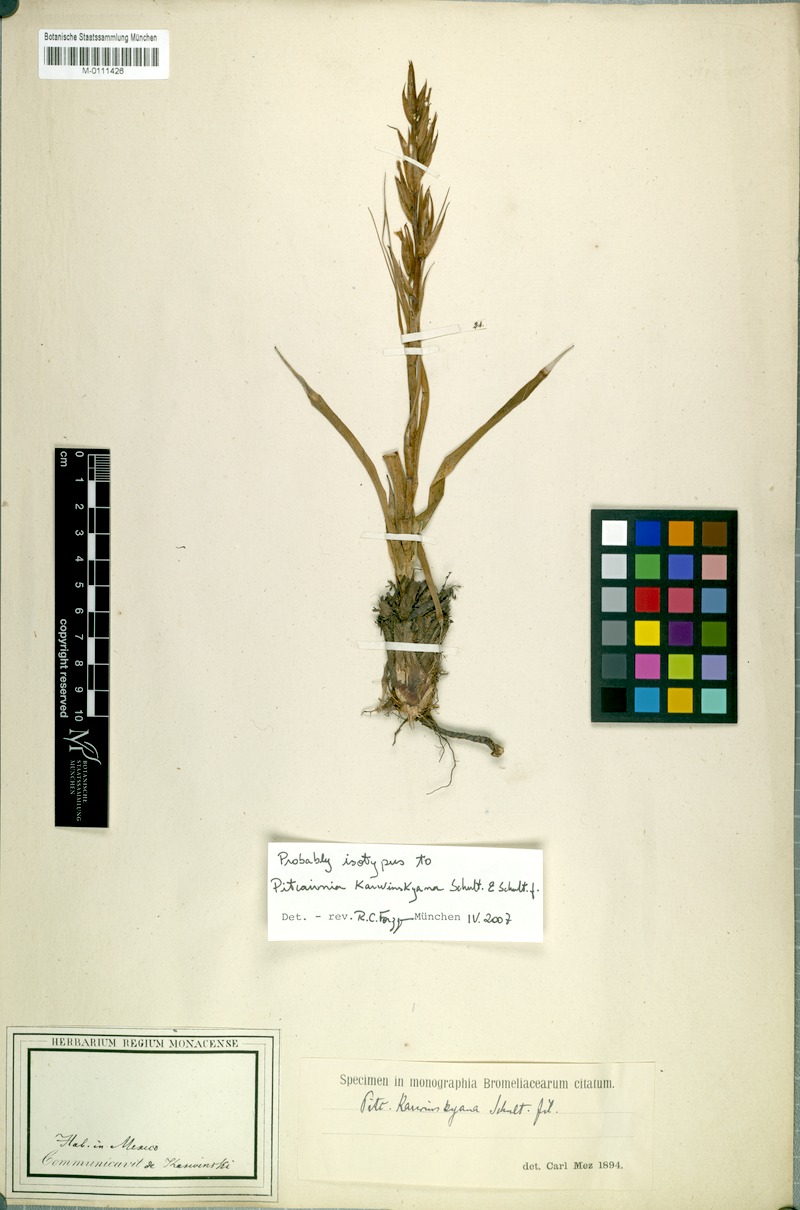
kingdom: Plantae
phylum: Tracheophyta
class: Liliopsida
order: Poales
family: Bromeliaceae
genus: Pitcairnia
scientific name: Pitcairnia karwinskyana
